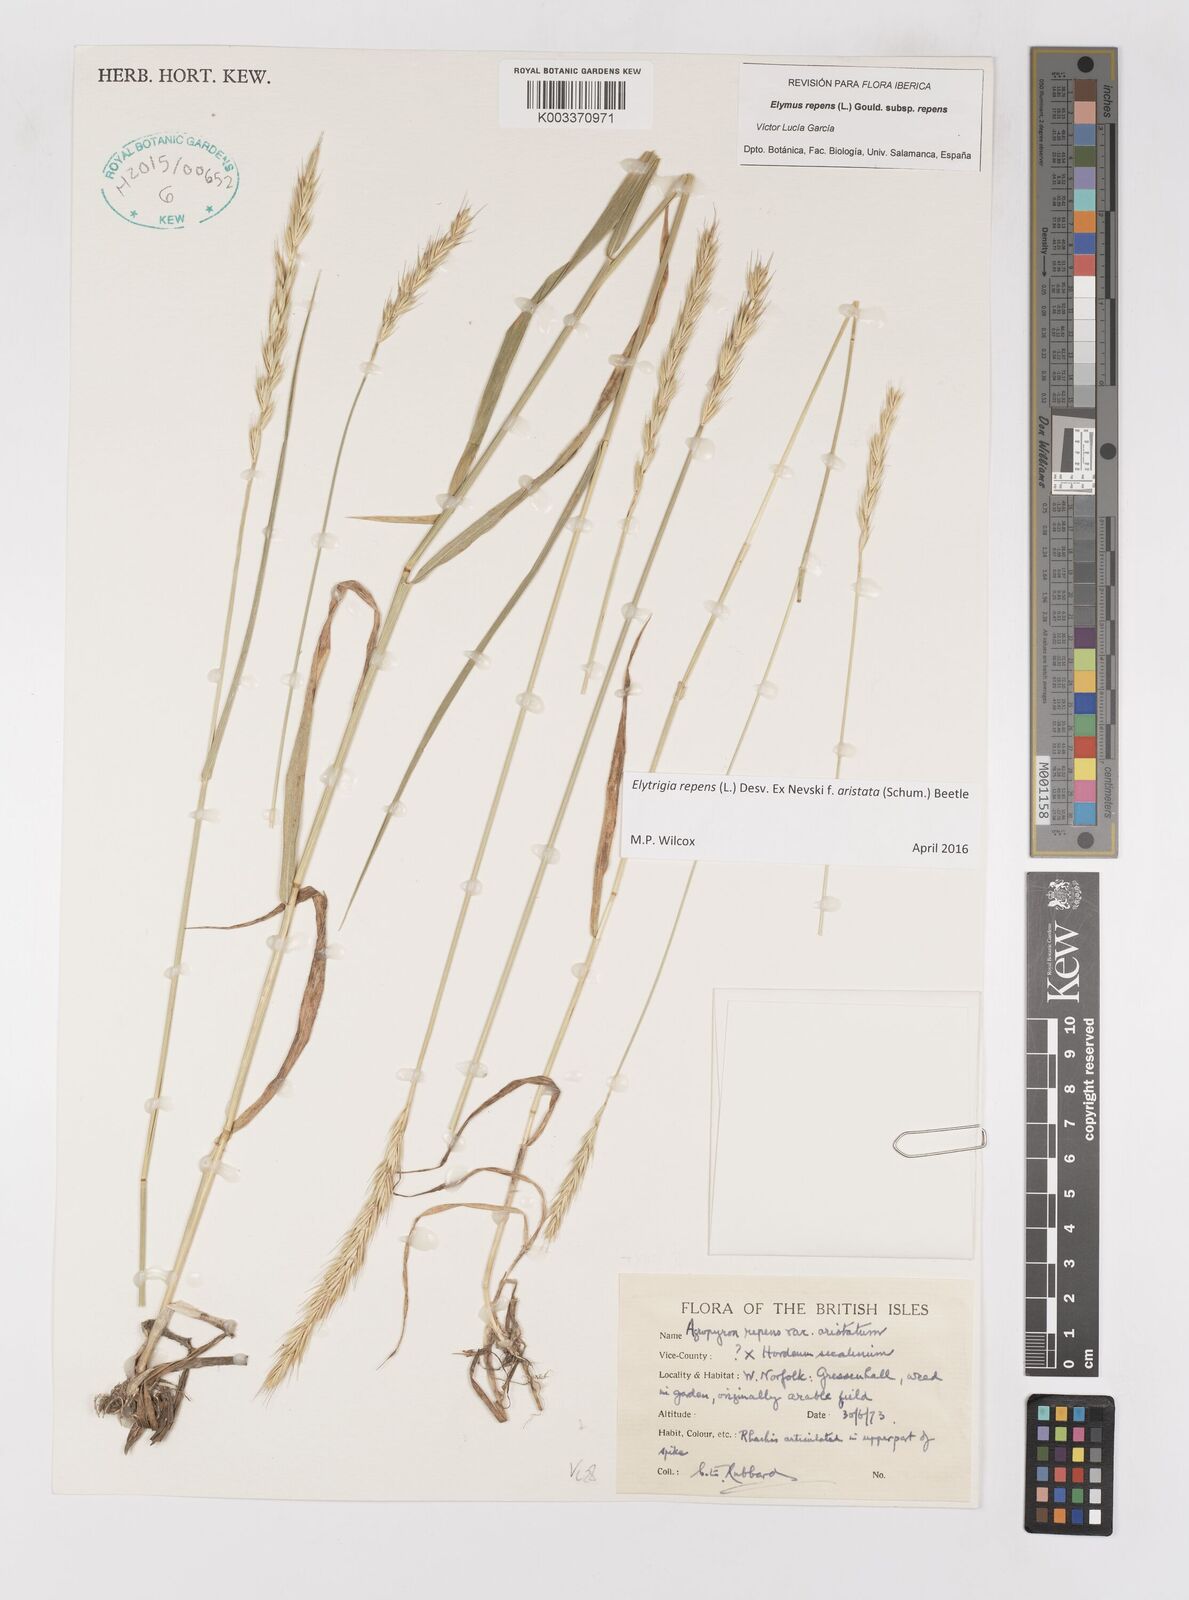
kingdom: Plantae
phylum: Tracheophyta
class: Liliopsida
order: Poales
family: Poaceae
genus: Elymus
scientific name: Elymus repens
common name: Quackgrass
